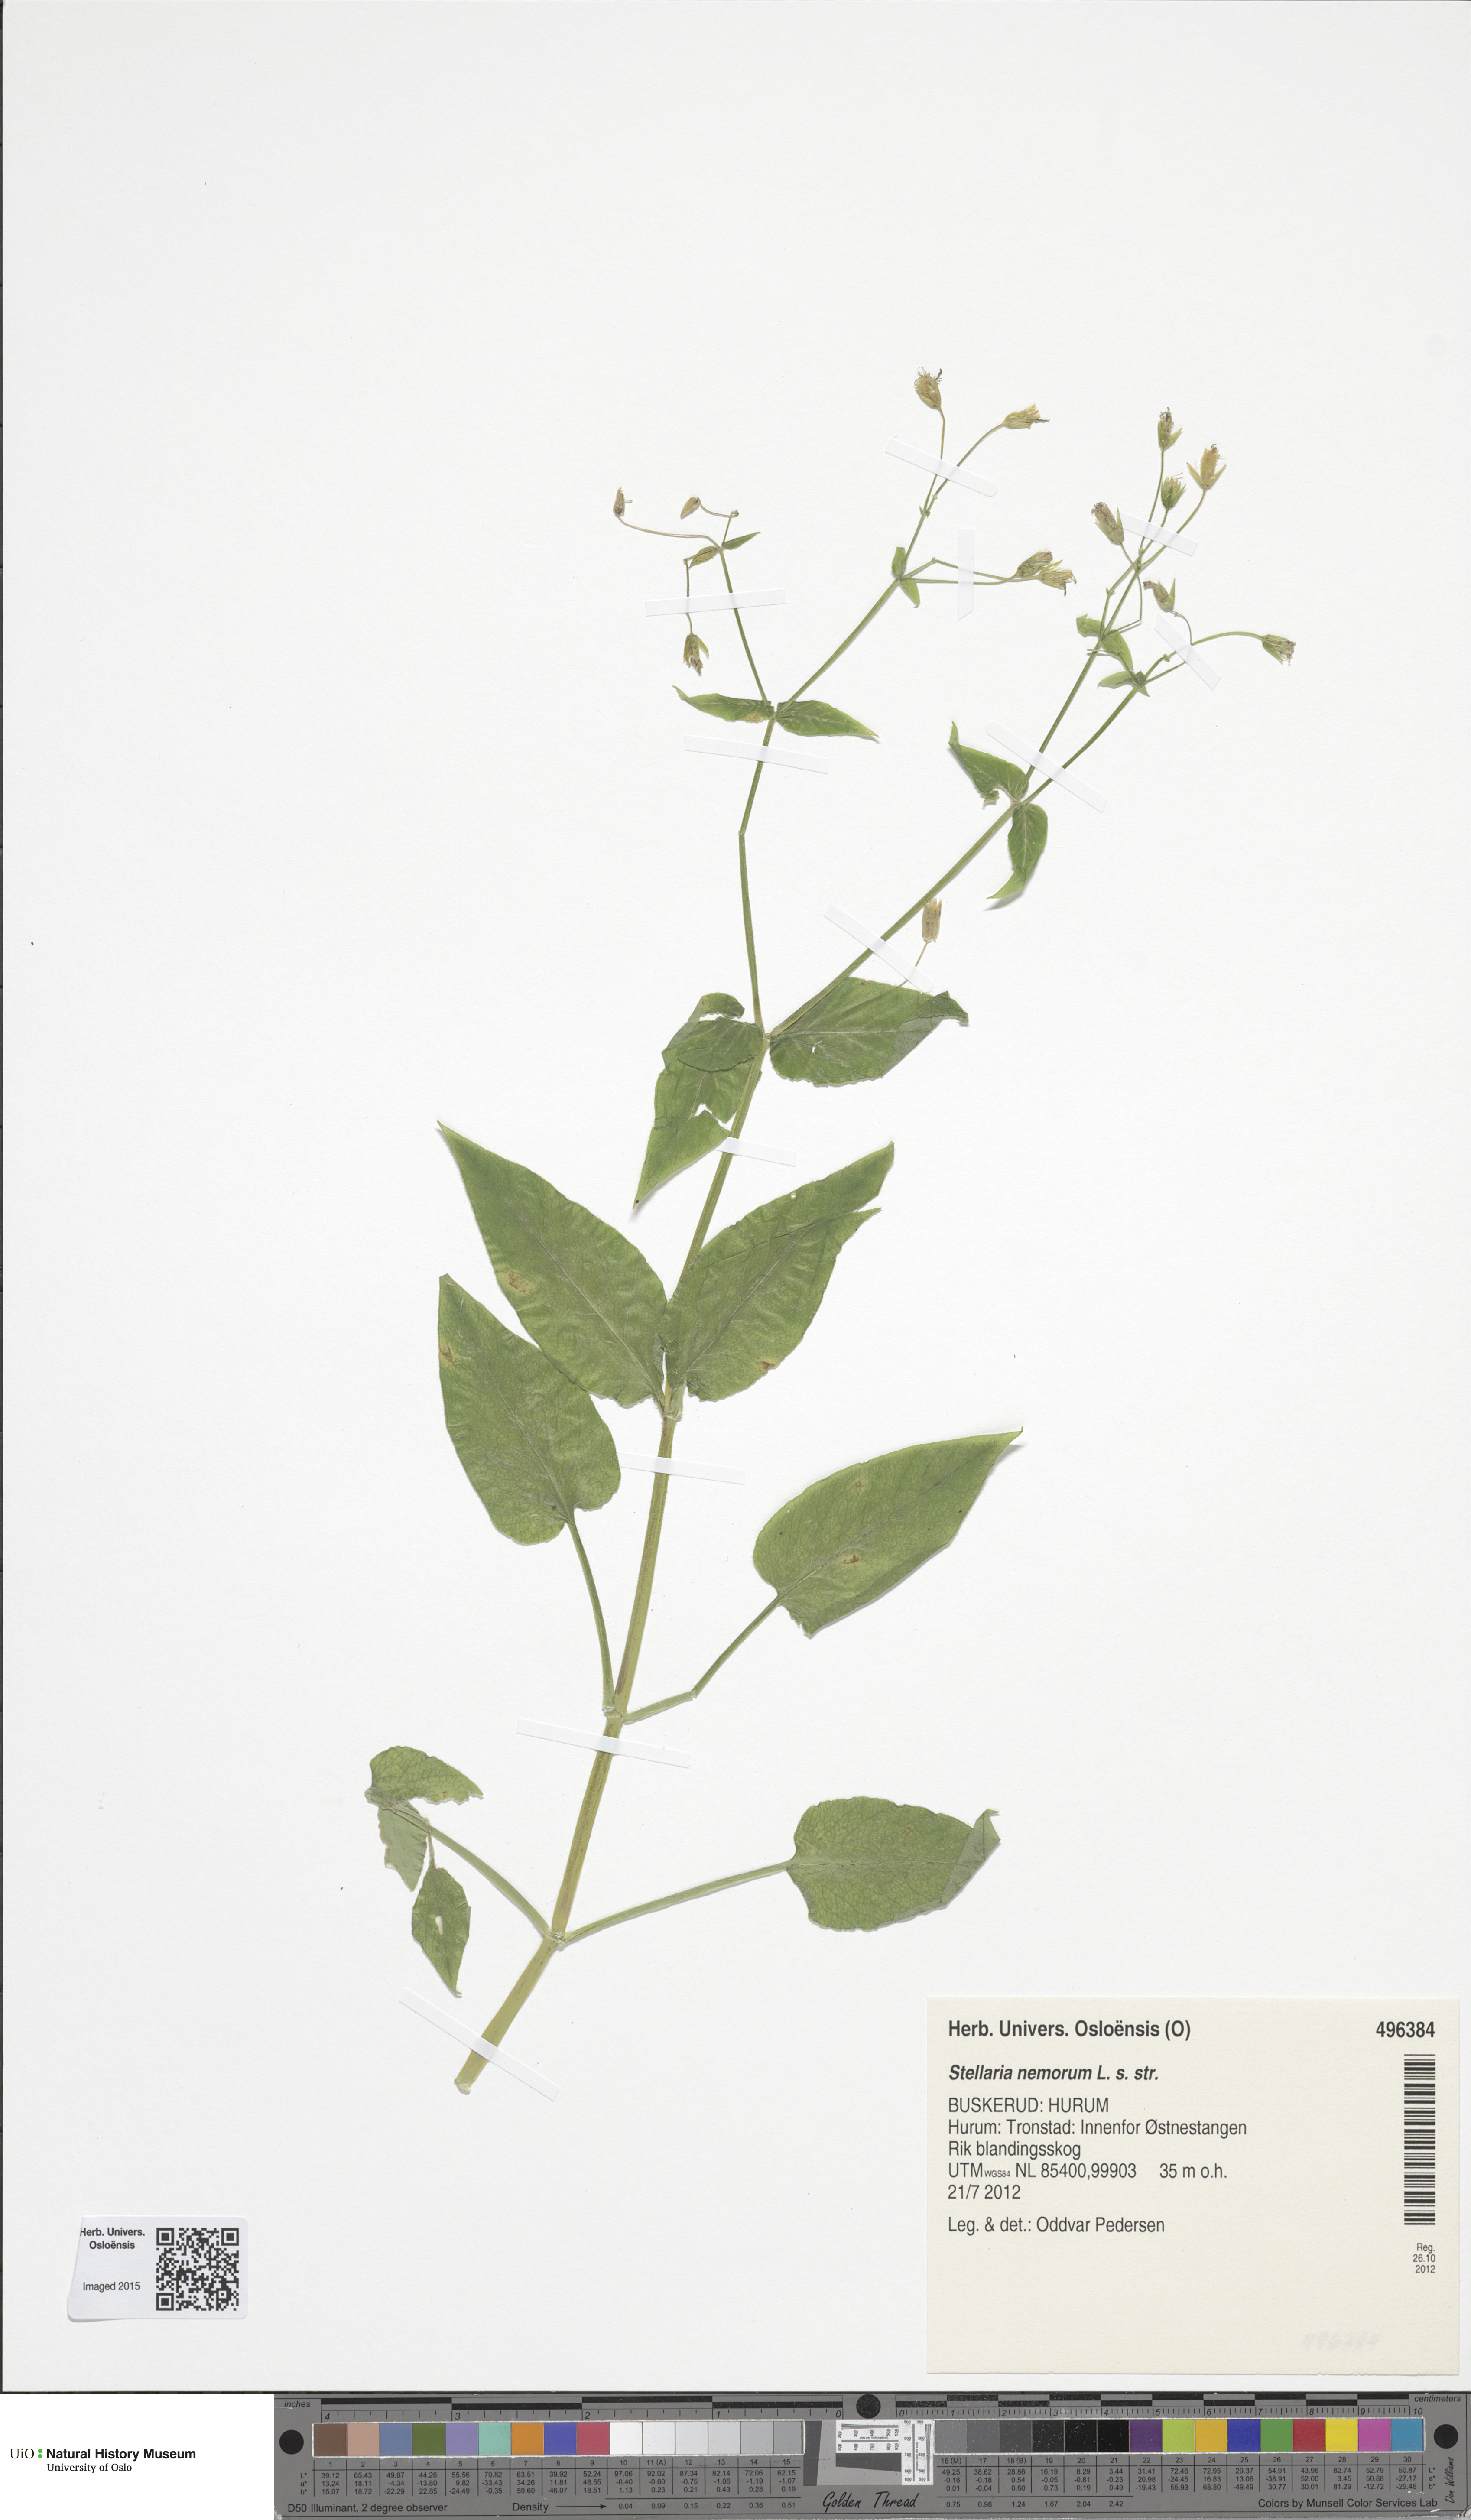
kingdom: Plantae
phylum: Tracheophyta
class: Magnoliopsida
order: Caryophyllales
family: Caryophyllaceae
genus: Stellaria
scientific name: Stellaria nemorum
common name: Wood stitchwort
